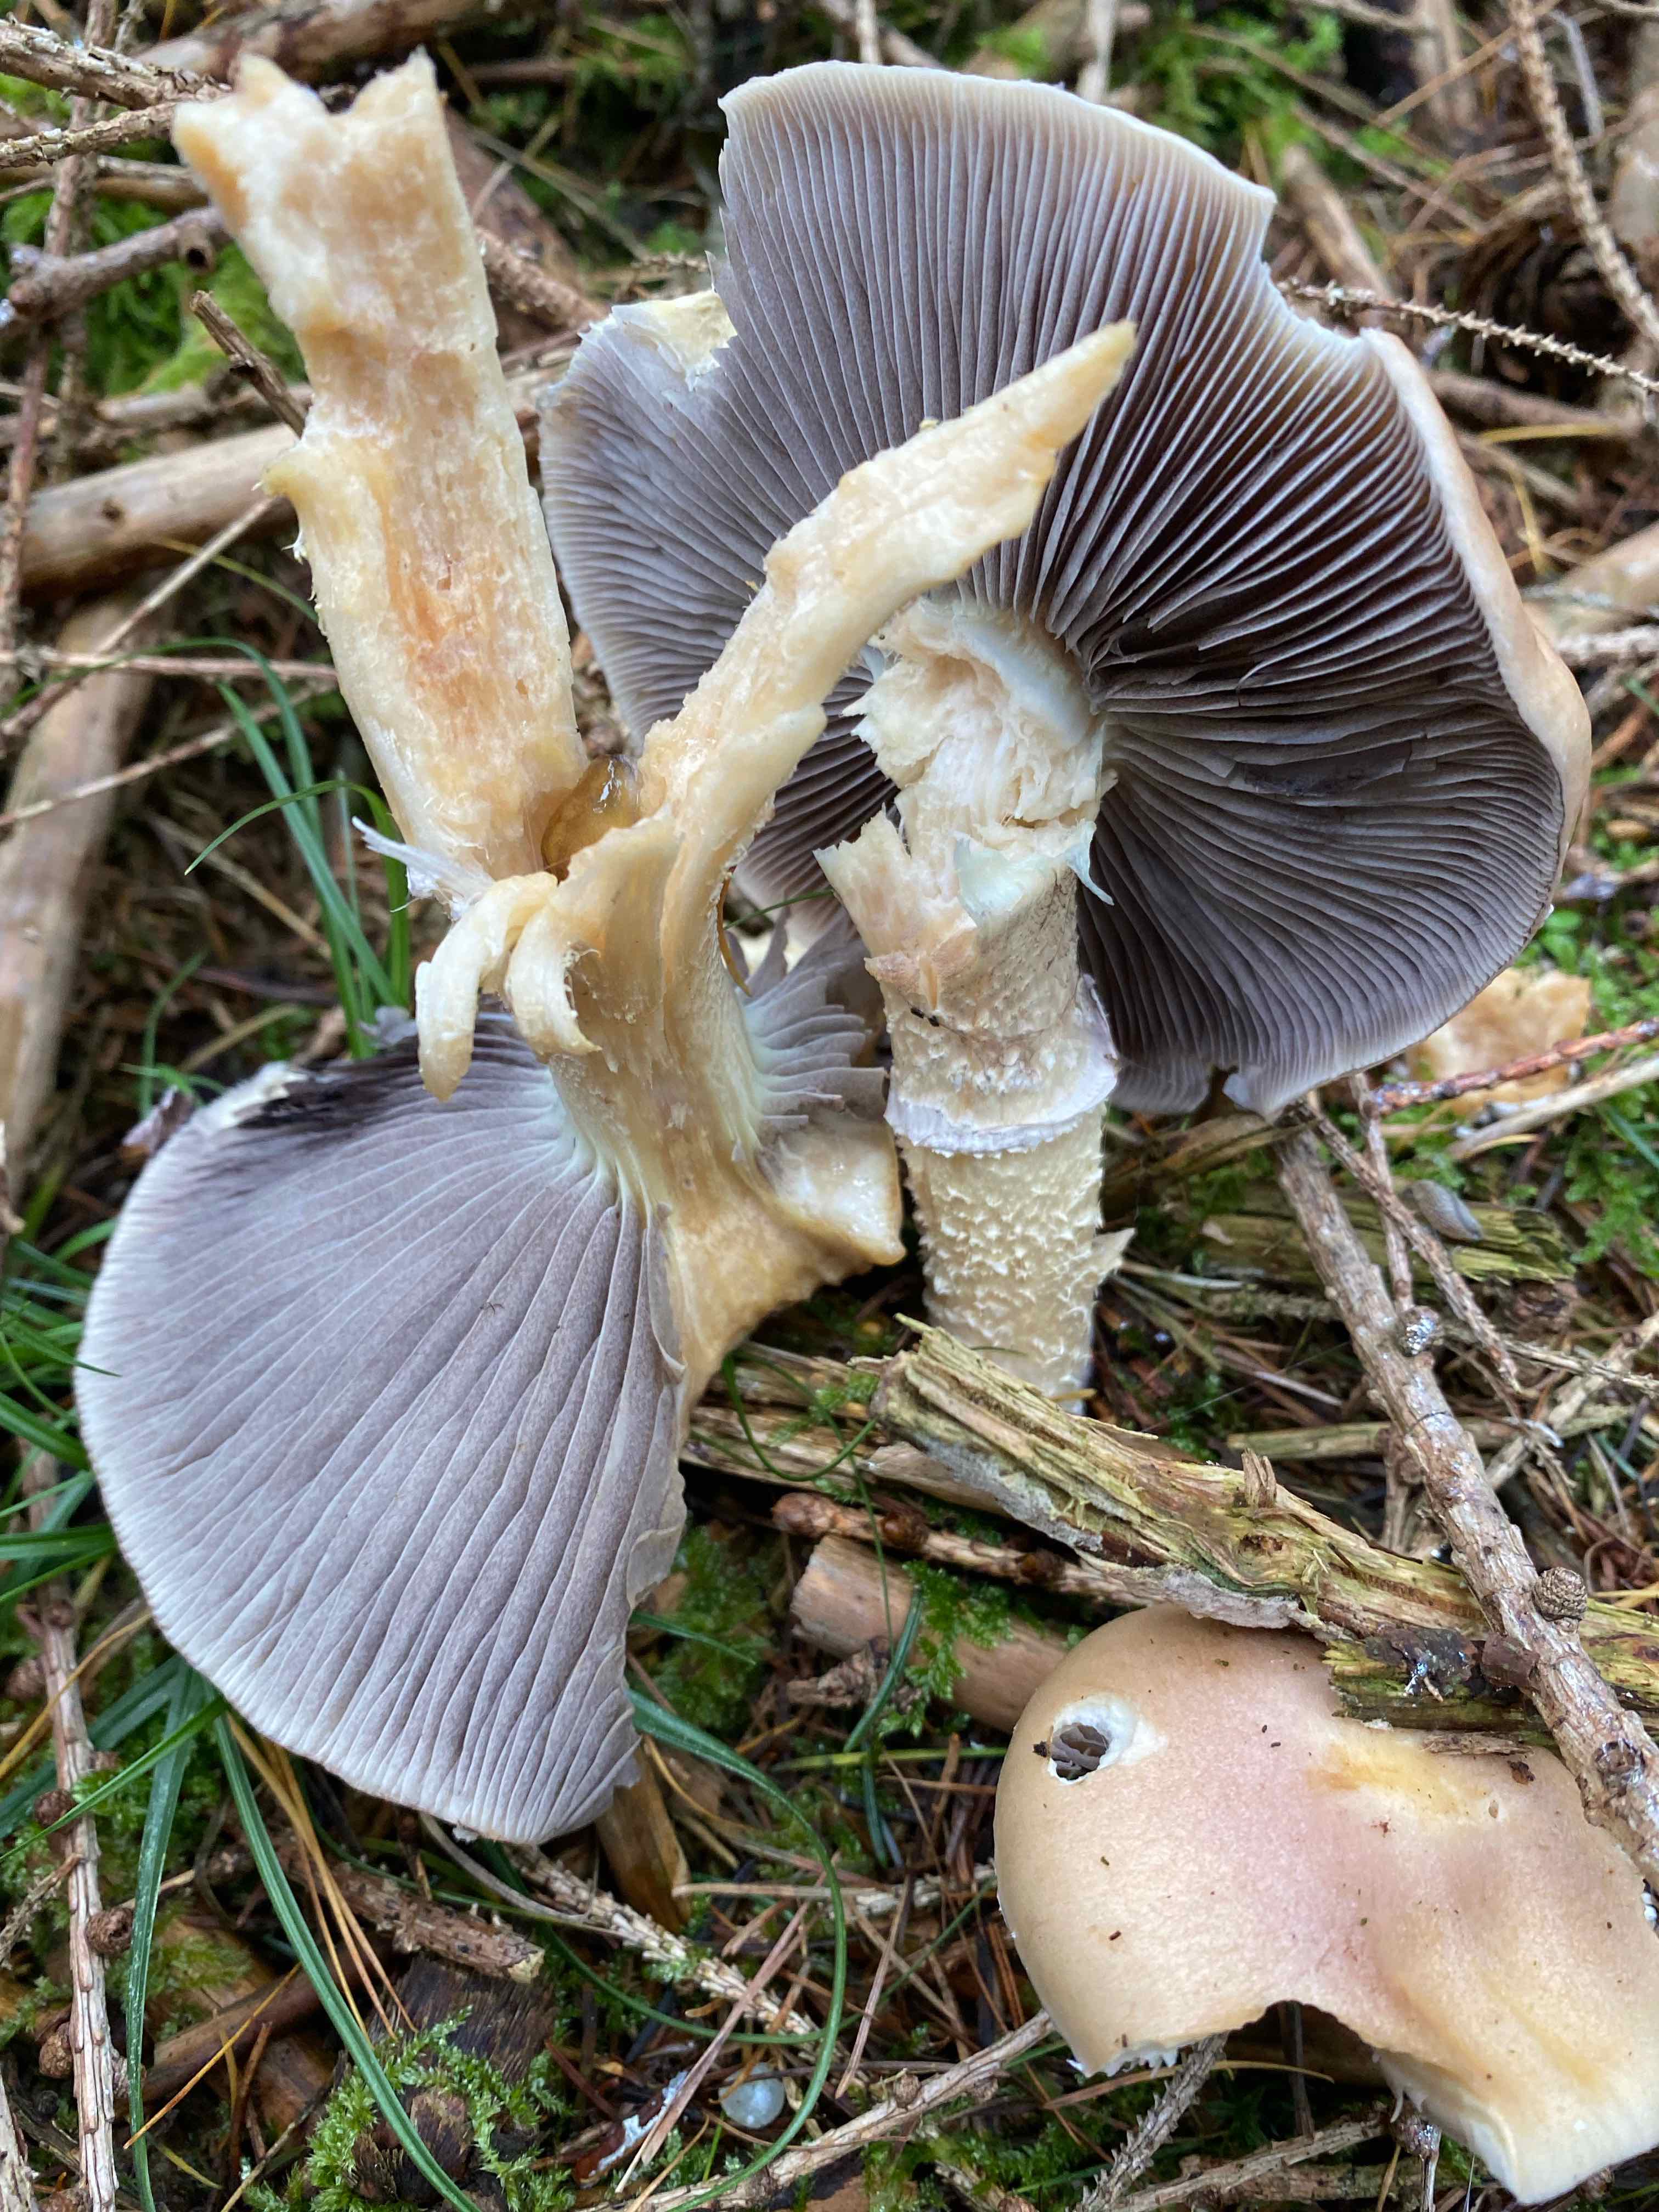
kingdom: Fungi
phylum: Basidiomycota
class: Agaricomycetes
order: Agaricales
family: Strophariaceae
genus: Stropharia
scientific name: Stropharia hornemannii
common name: nordisk bredblad
